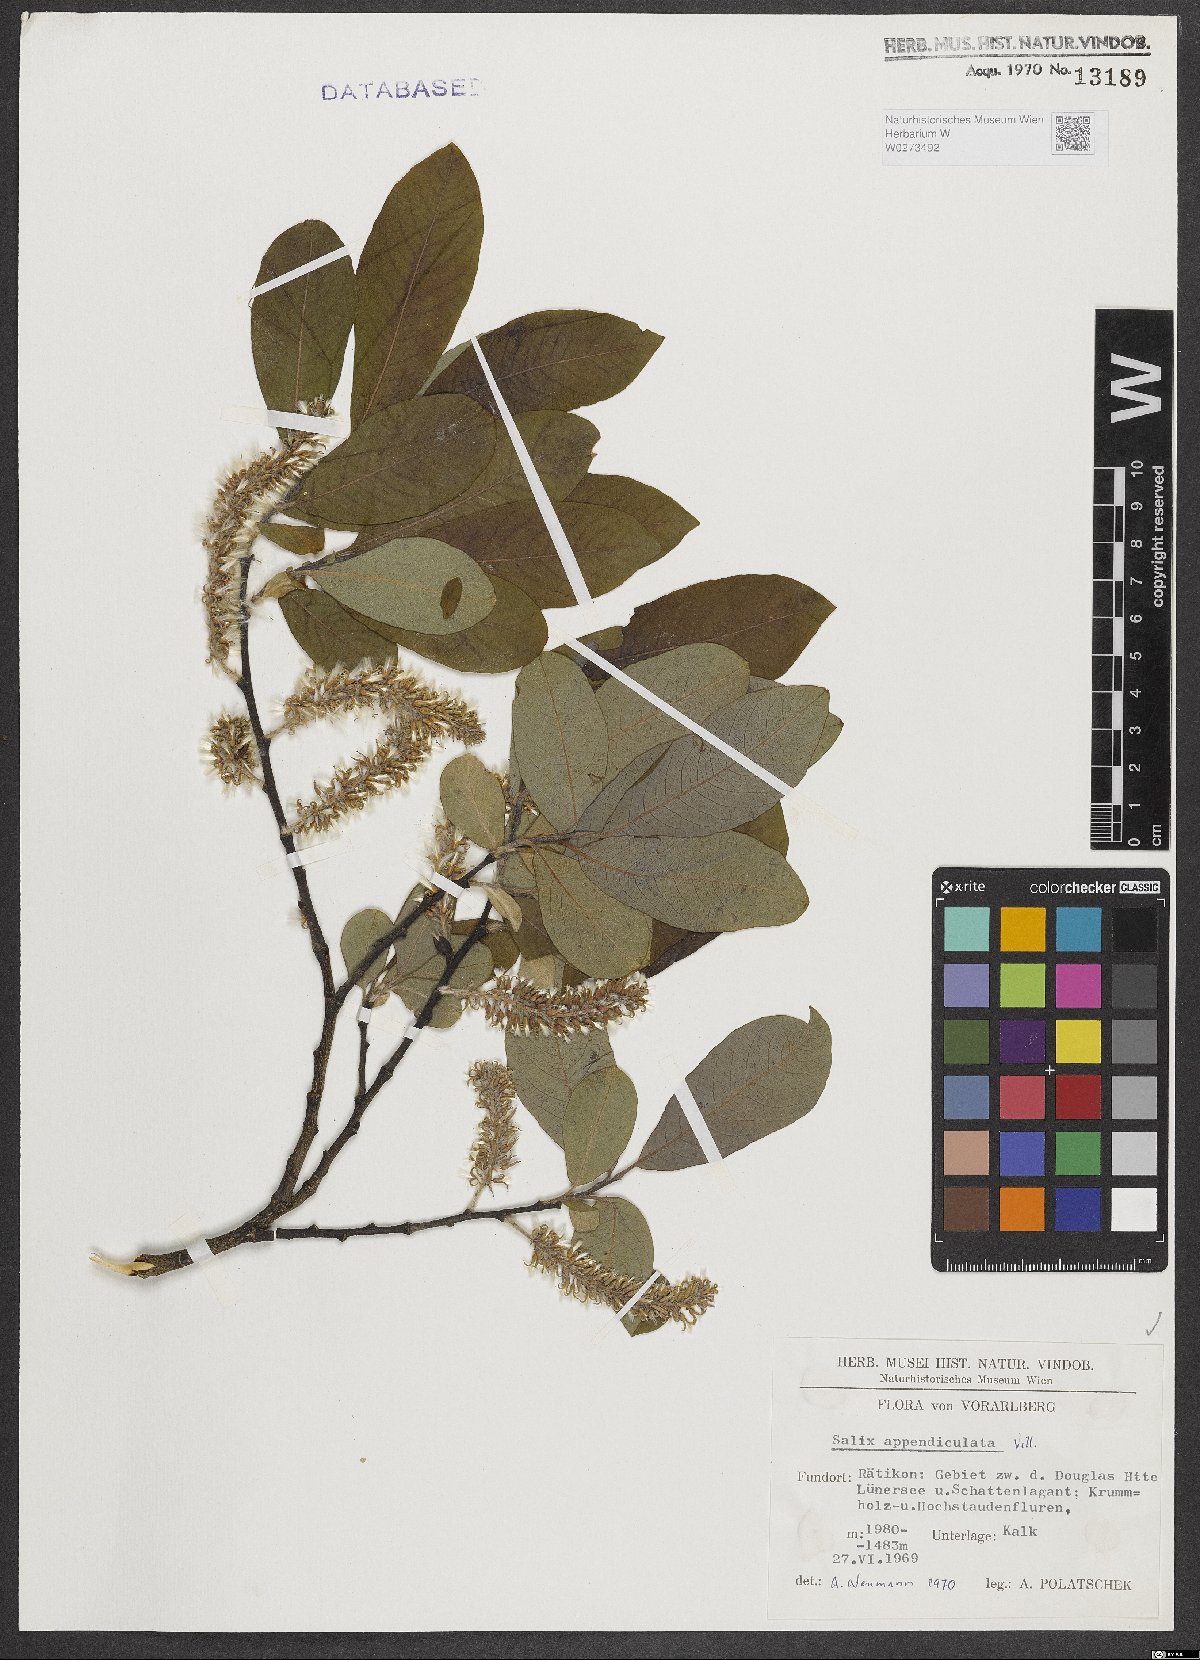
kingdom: Plantae
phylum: Tracheophyta
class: Magnoliopsida
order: Malpighiales
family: Salicaceae
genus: Salix
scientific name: Salix appendiculata
